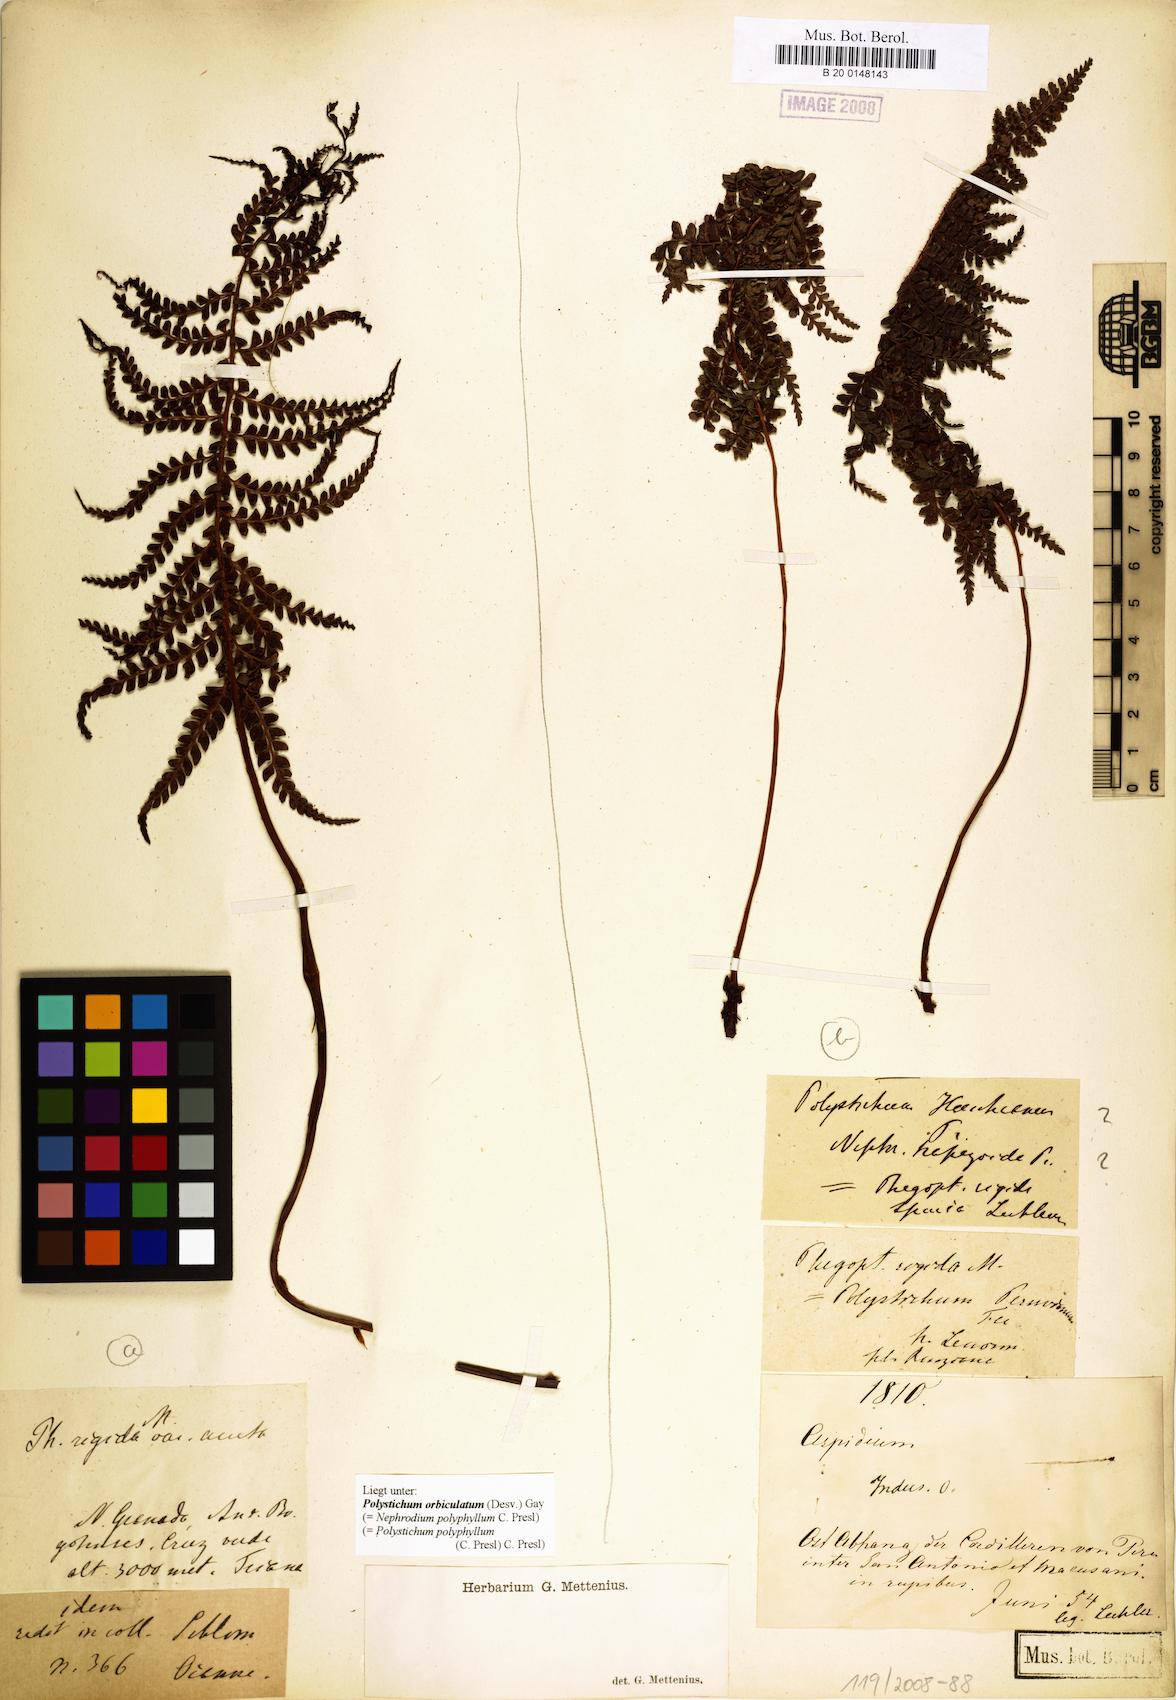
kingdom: Plantae
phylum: Tracheophyta
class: Polypodiopsida
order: Polypodiales
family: Dryopteridaceae
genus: Polystichum
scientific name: Polystichum orbiculatum
